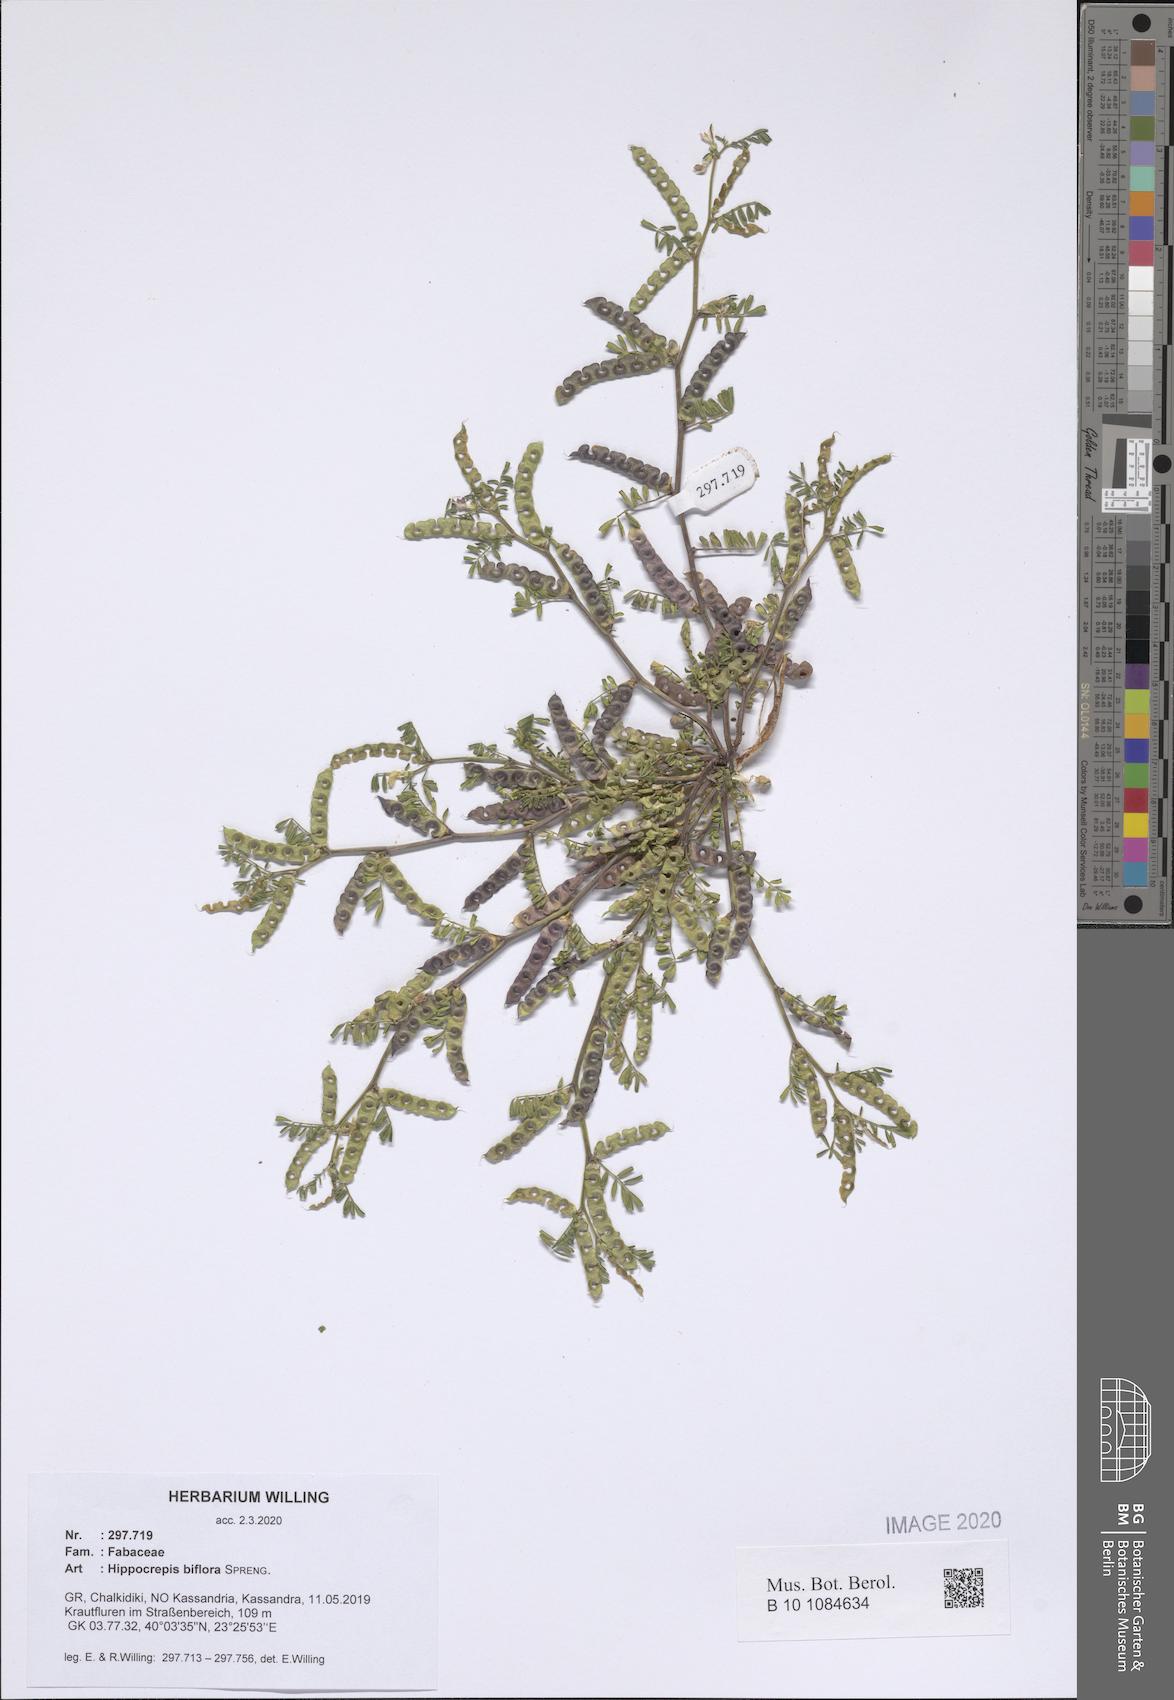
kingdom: Plantae
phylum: Tracheophyta
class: Magnoliopsida
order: Fabales
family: Fabaceae
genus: Hippocrepis
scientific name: Hippocrepis biflora
